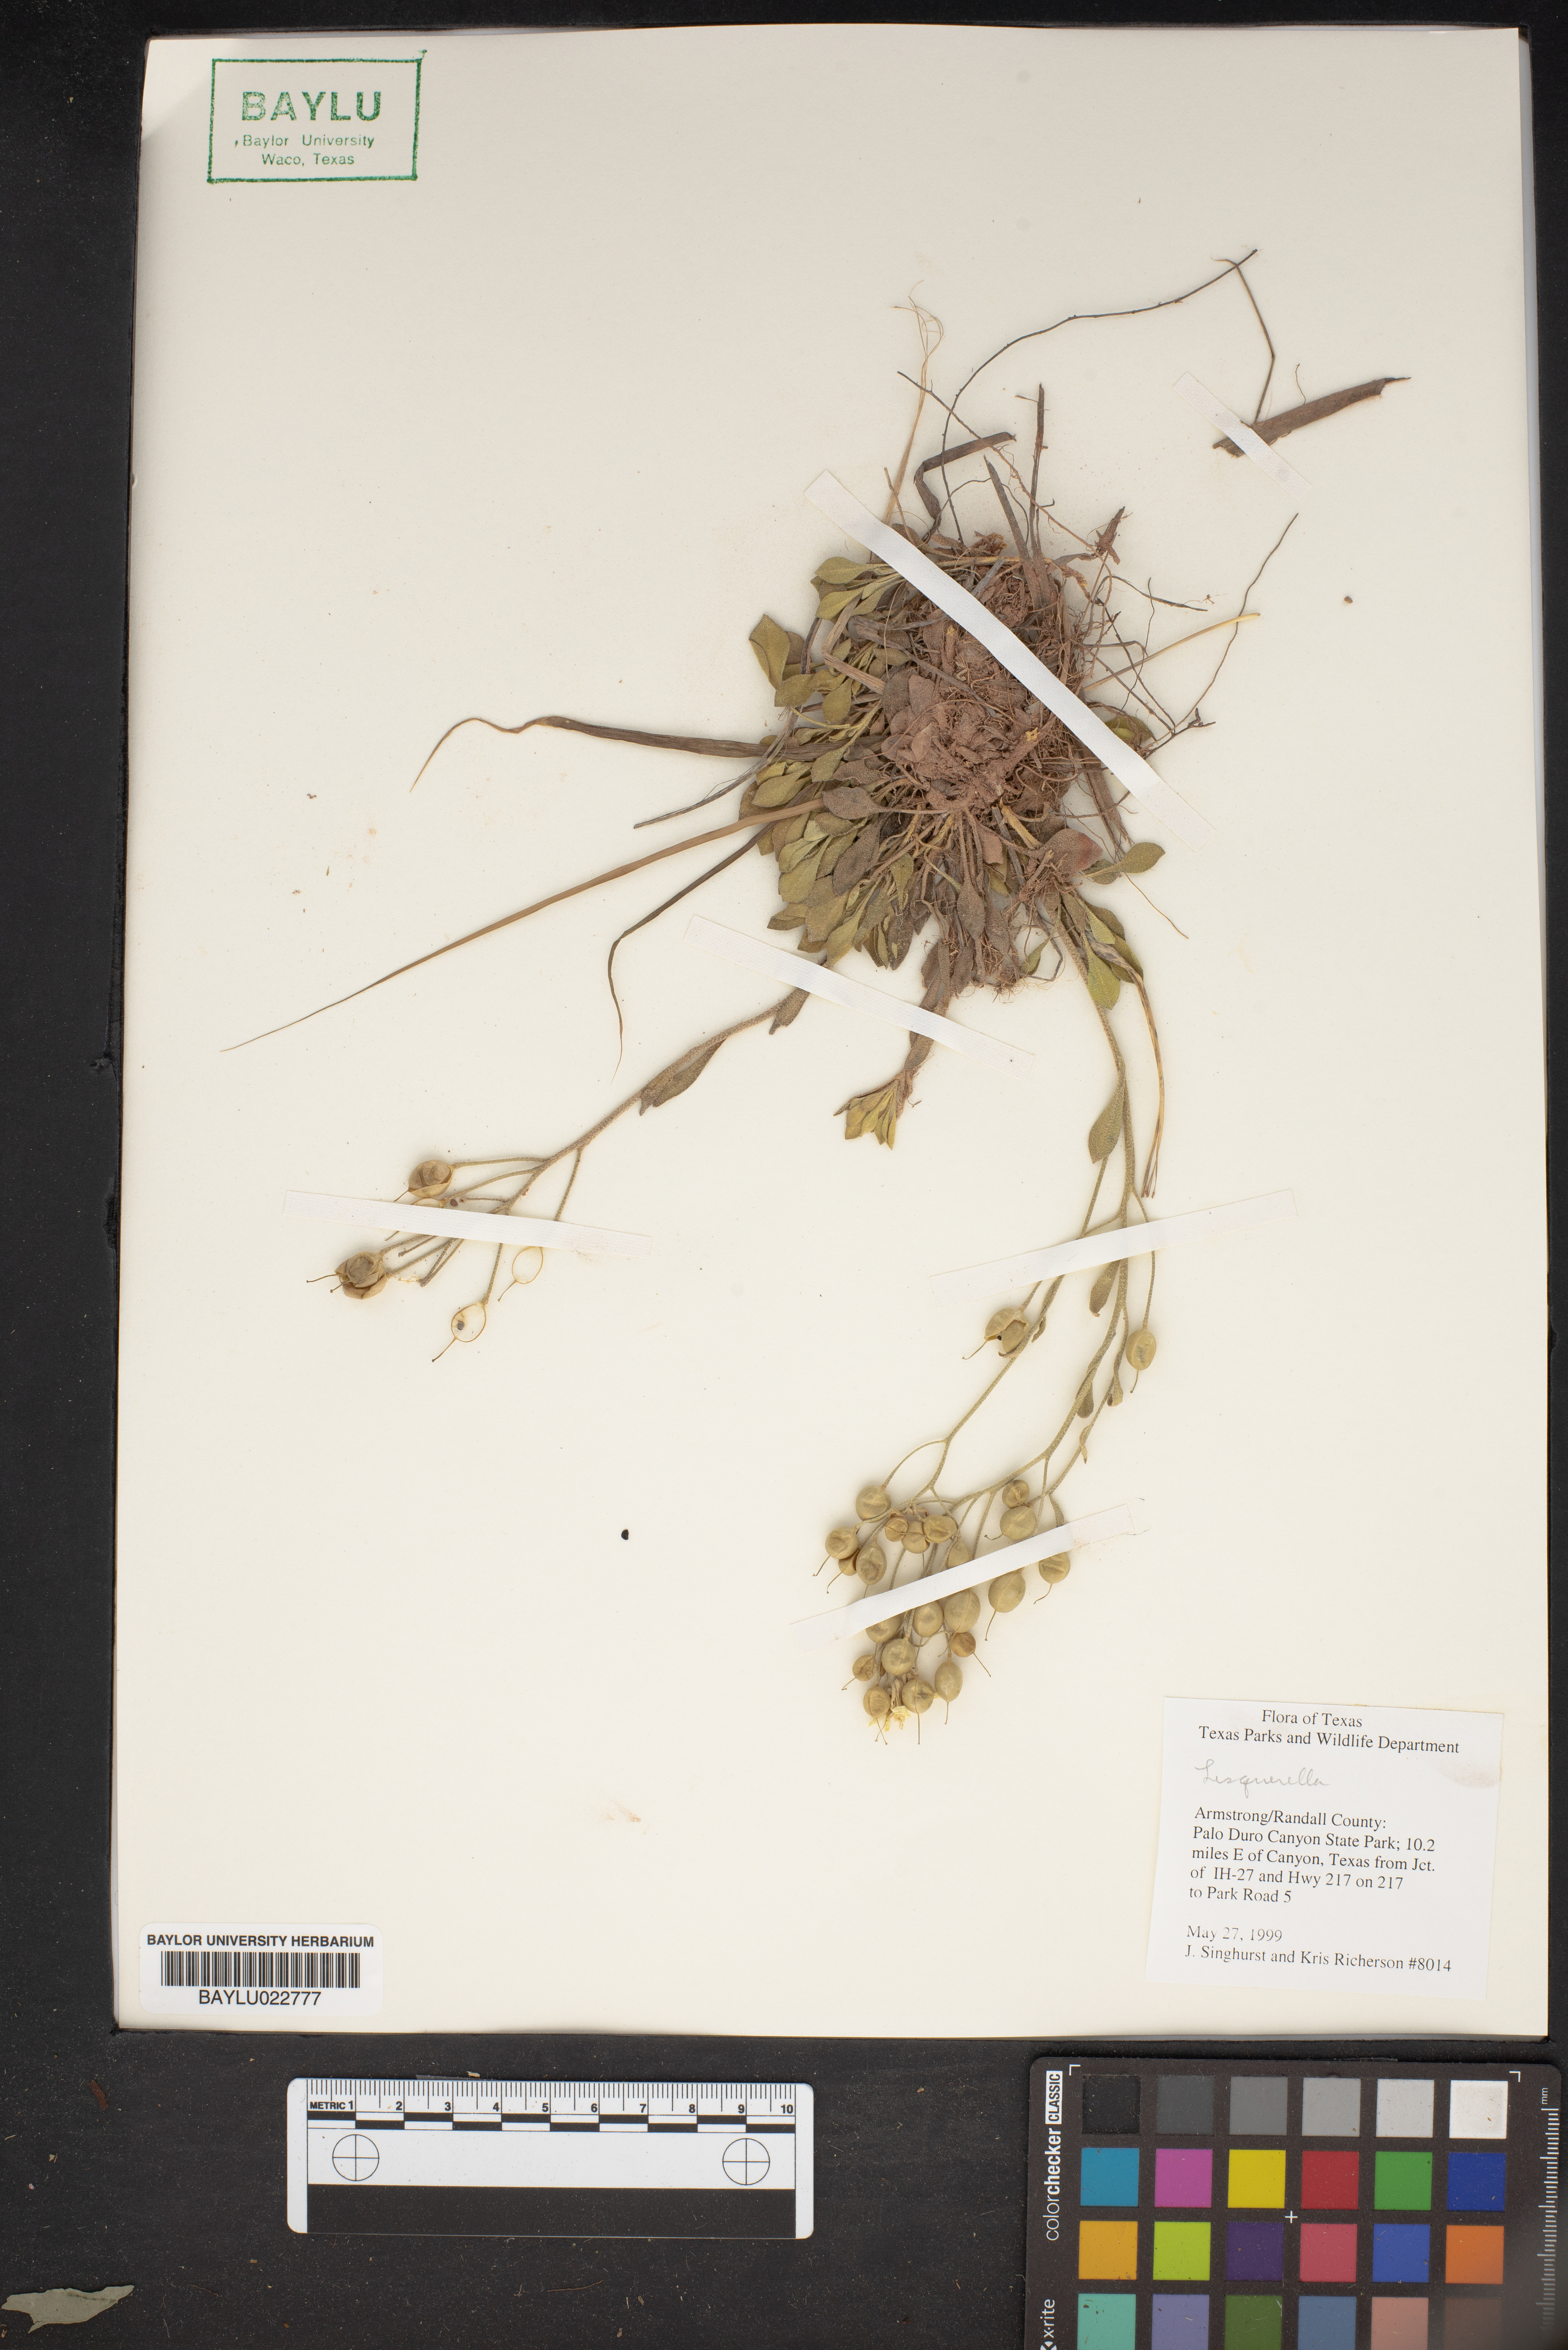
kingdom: Chromista
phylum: Cercozoa
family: Psammonobiotidae
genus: Lesquerella
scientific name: Lesquerella
